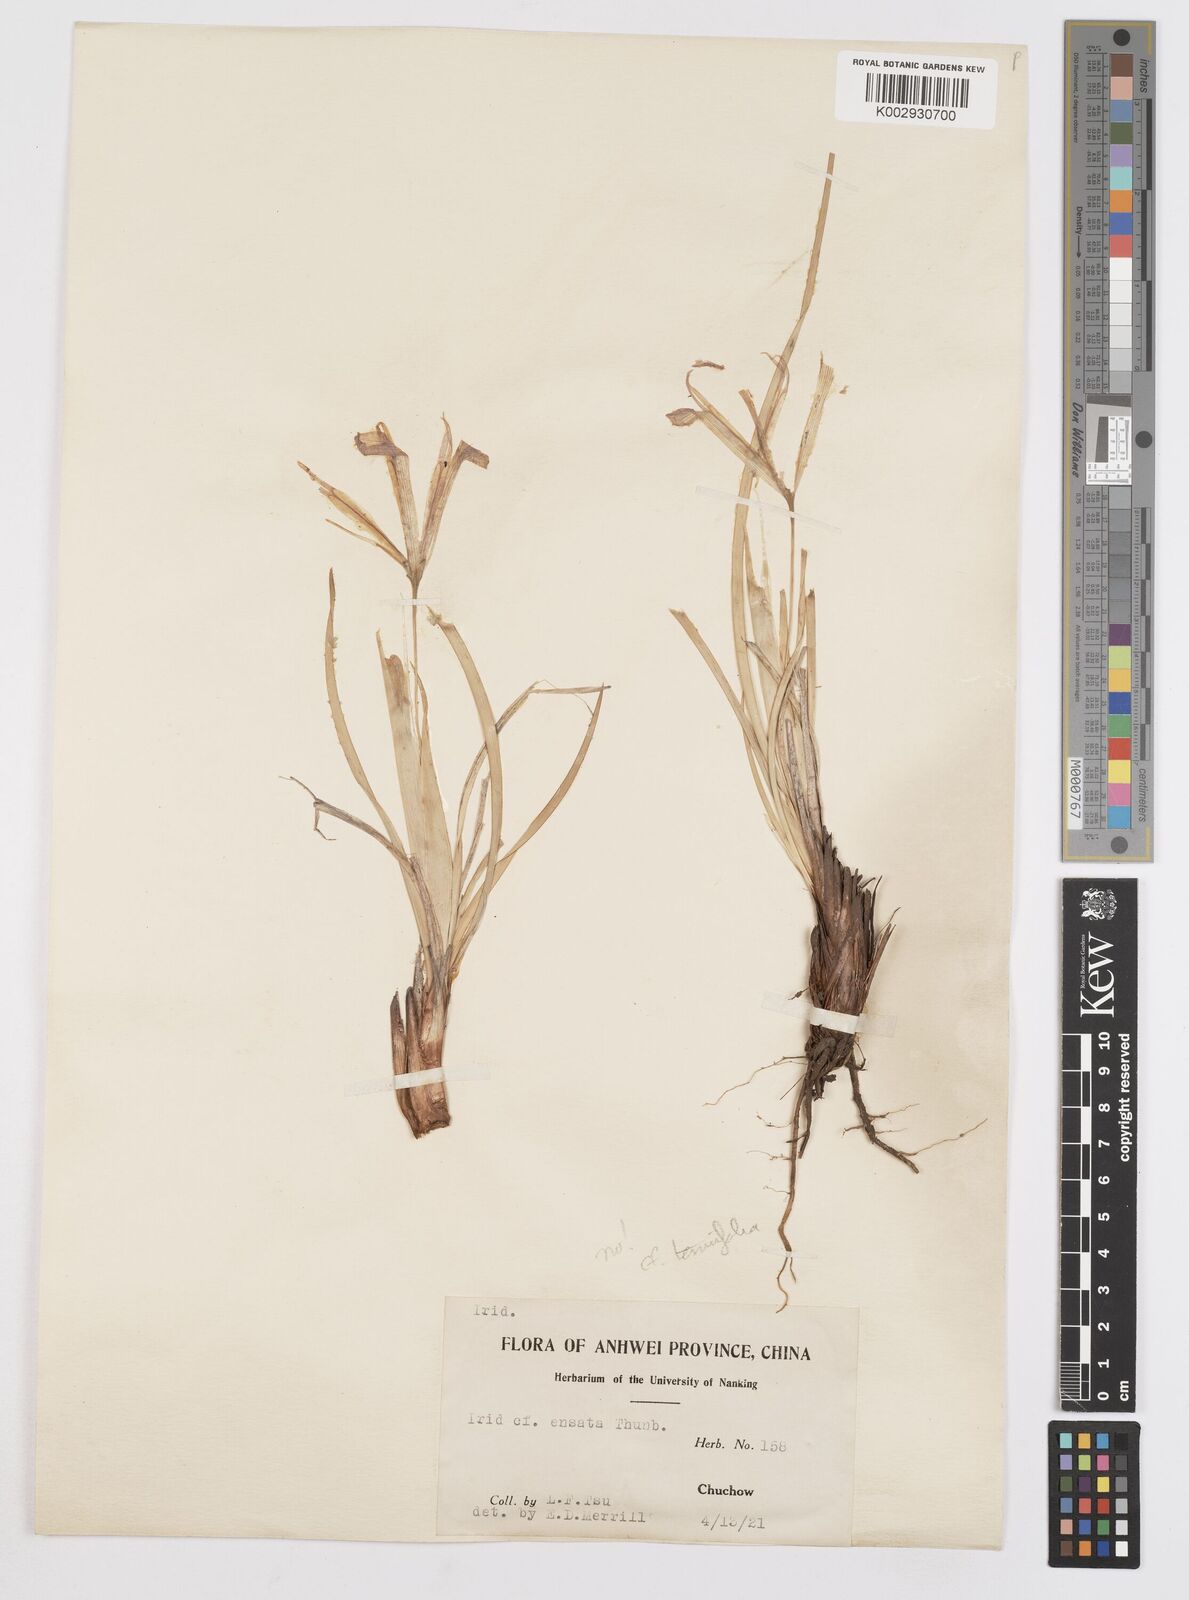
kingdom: Plantae
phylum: Tracheophyta
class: Liliopsida
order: Asparagales
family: Iridaceae
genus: Iris
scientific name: Iris ensata
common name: Beaked iris
